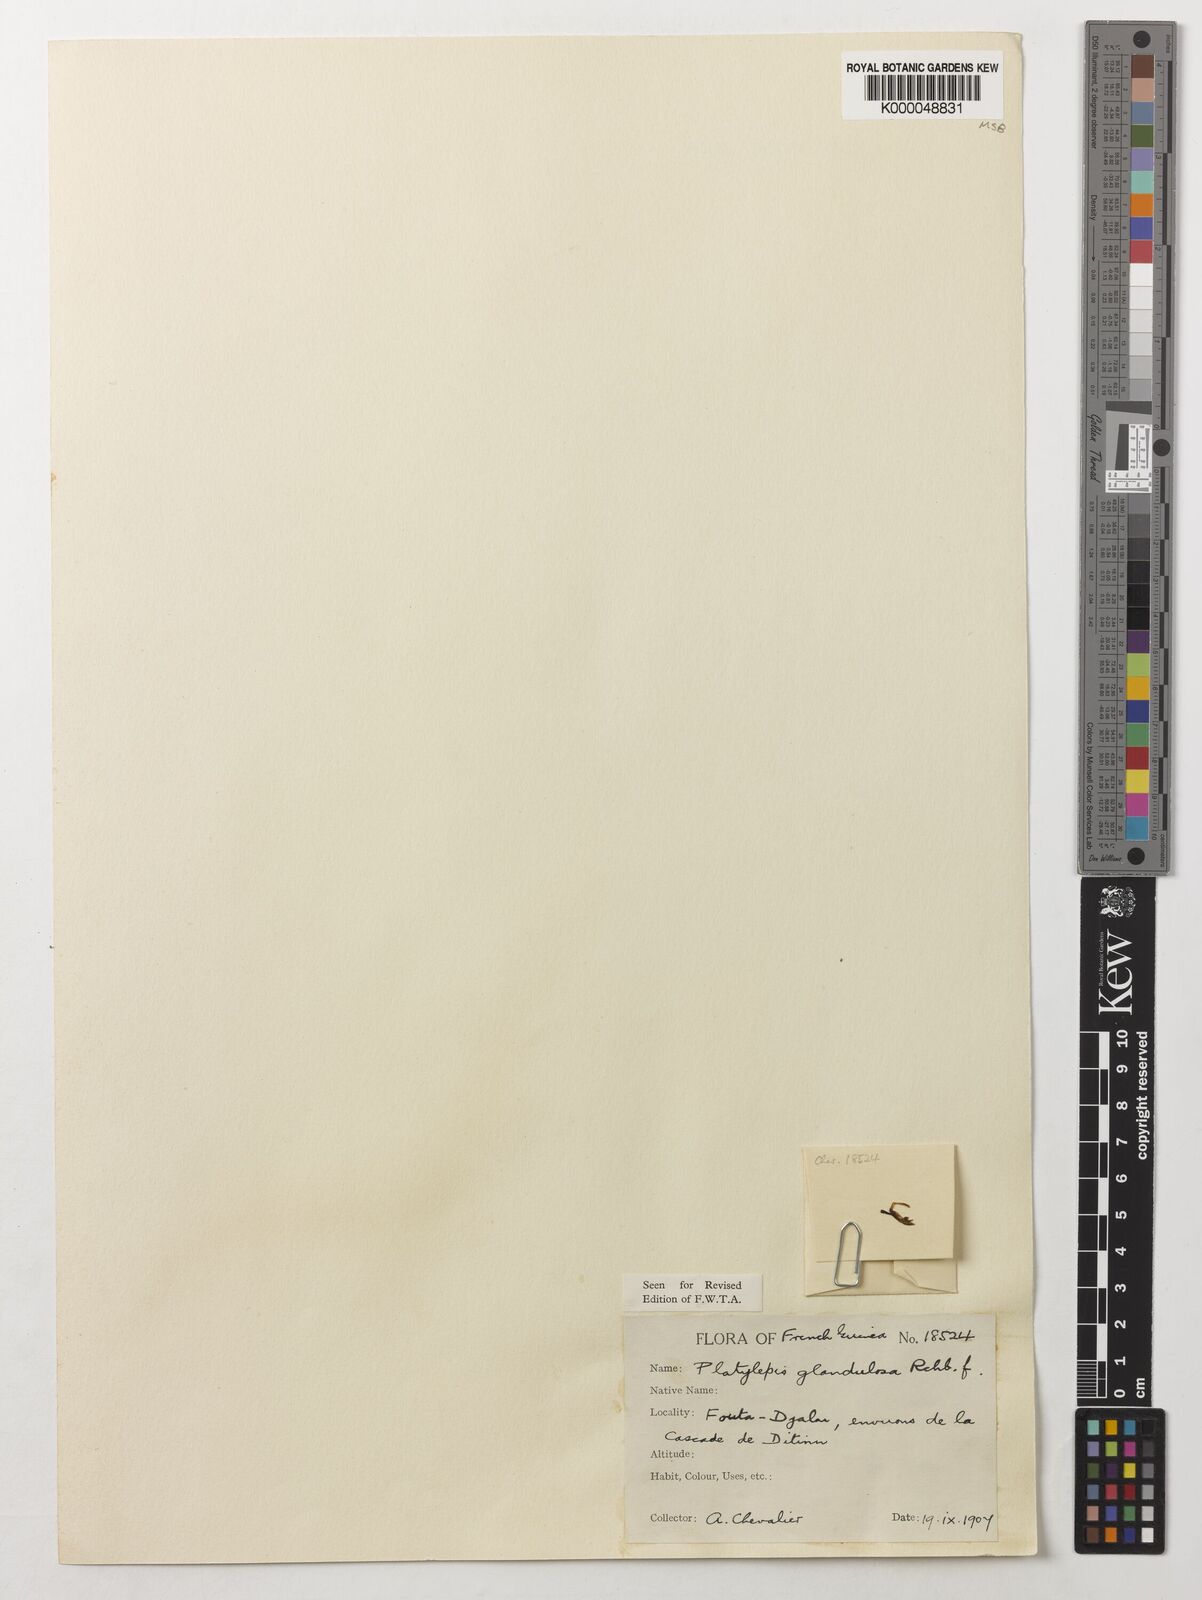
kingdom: Plantae
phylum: Tracheophyta
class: Liliopsida
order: Asparagales
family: Orchidaceae
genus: Platylepis
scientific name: Platylepis glandulosa
